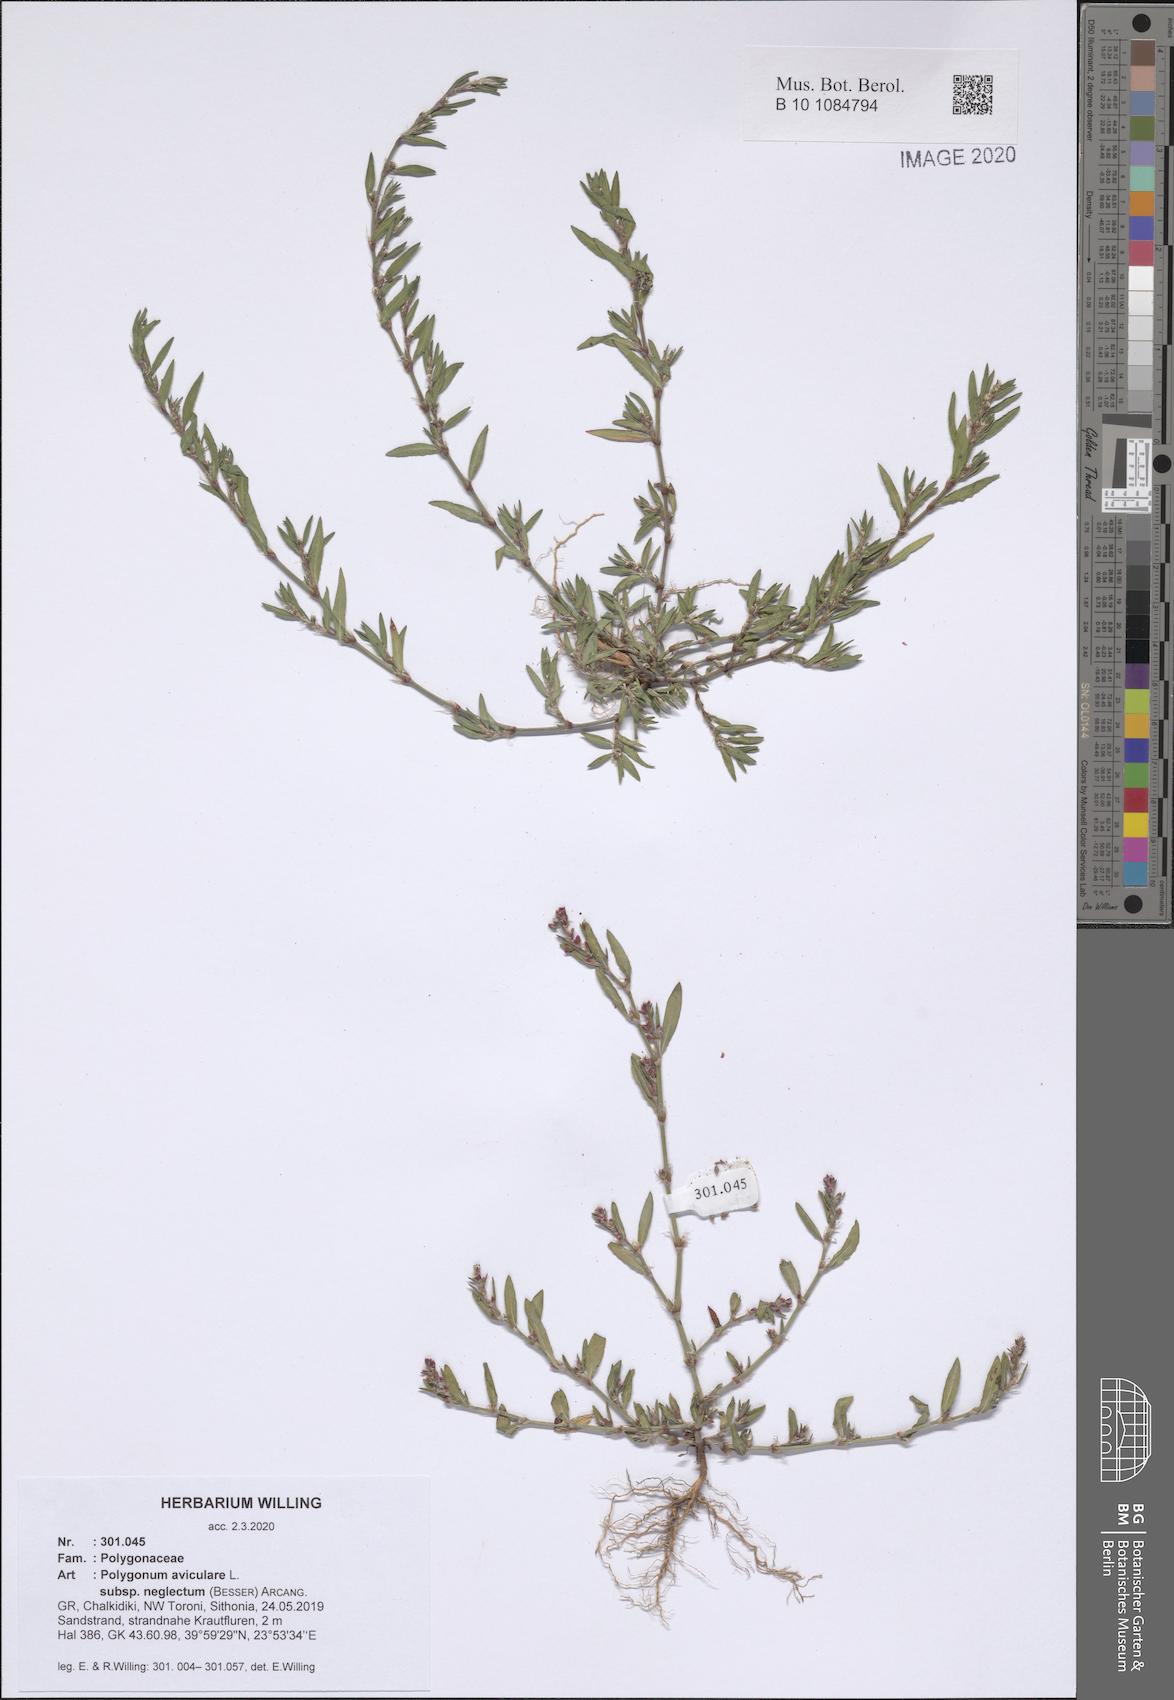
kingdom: Plantae
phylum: Tracheophyta
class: Magnoliopsida
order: Caryophyllales
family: Polygonaceae
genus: Polygonum
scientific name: Polygonum aviculare
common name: Prostrate knotweed
